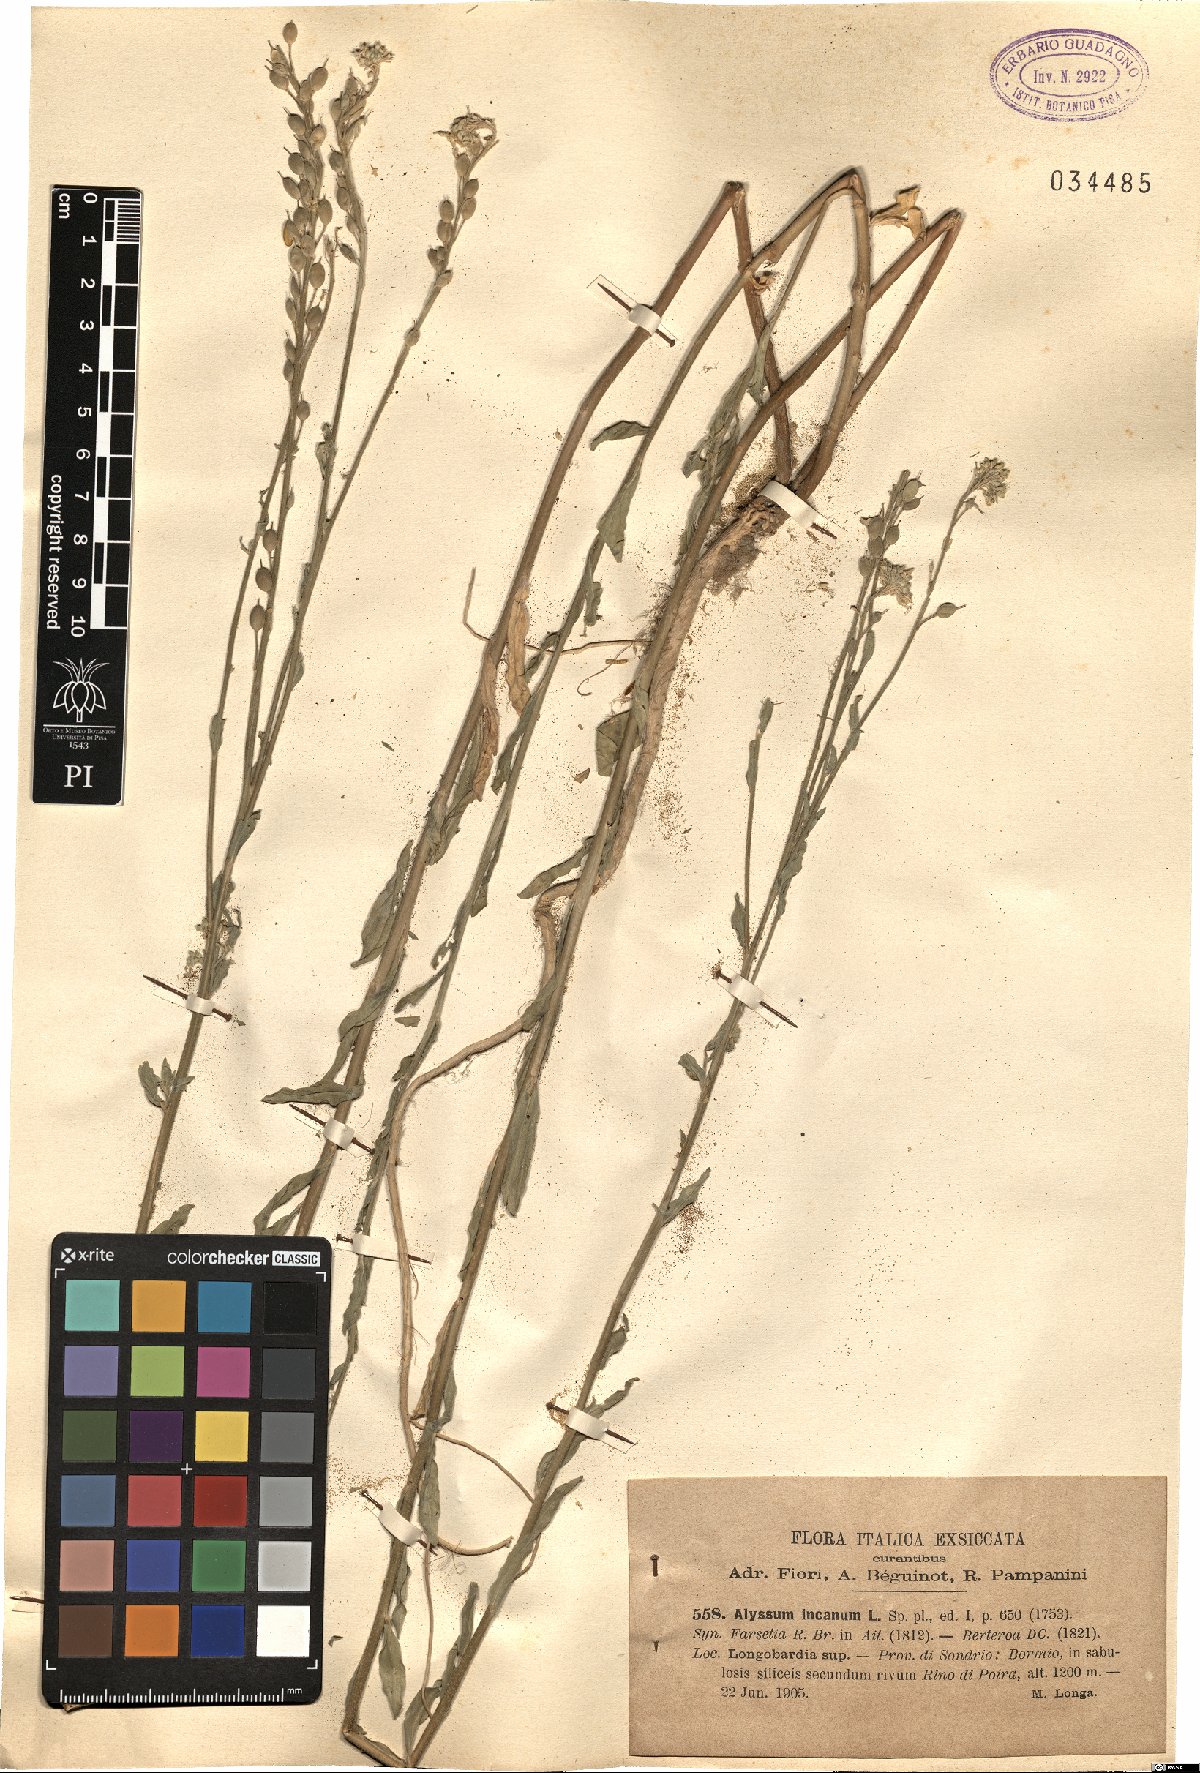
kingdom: Plantae
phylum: Tracheophyta
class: Magnoliopsida
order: Brassicales
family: Brassicaceae
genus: Berteroa
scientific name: Berteroa incana
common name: Hoary alison
